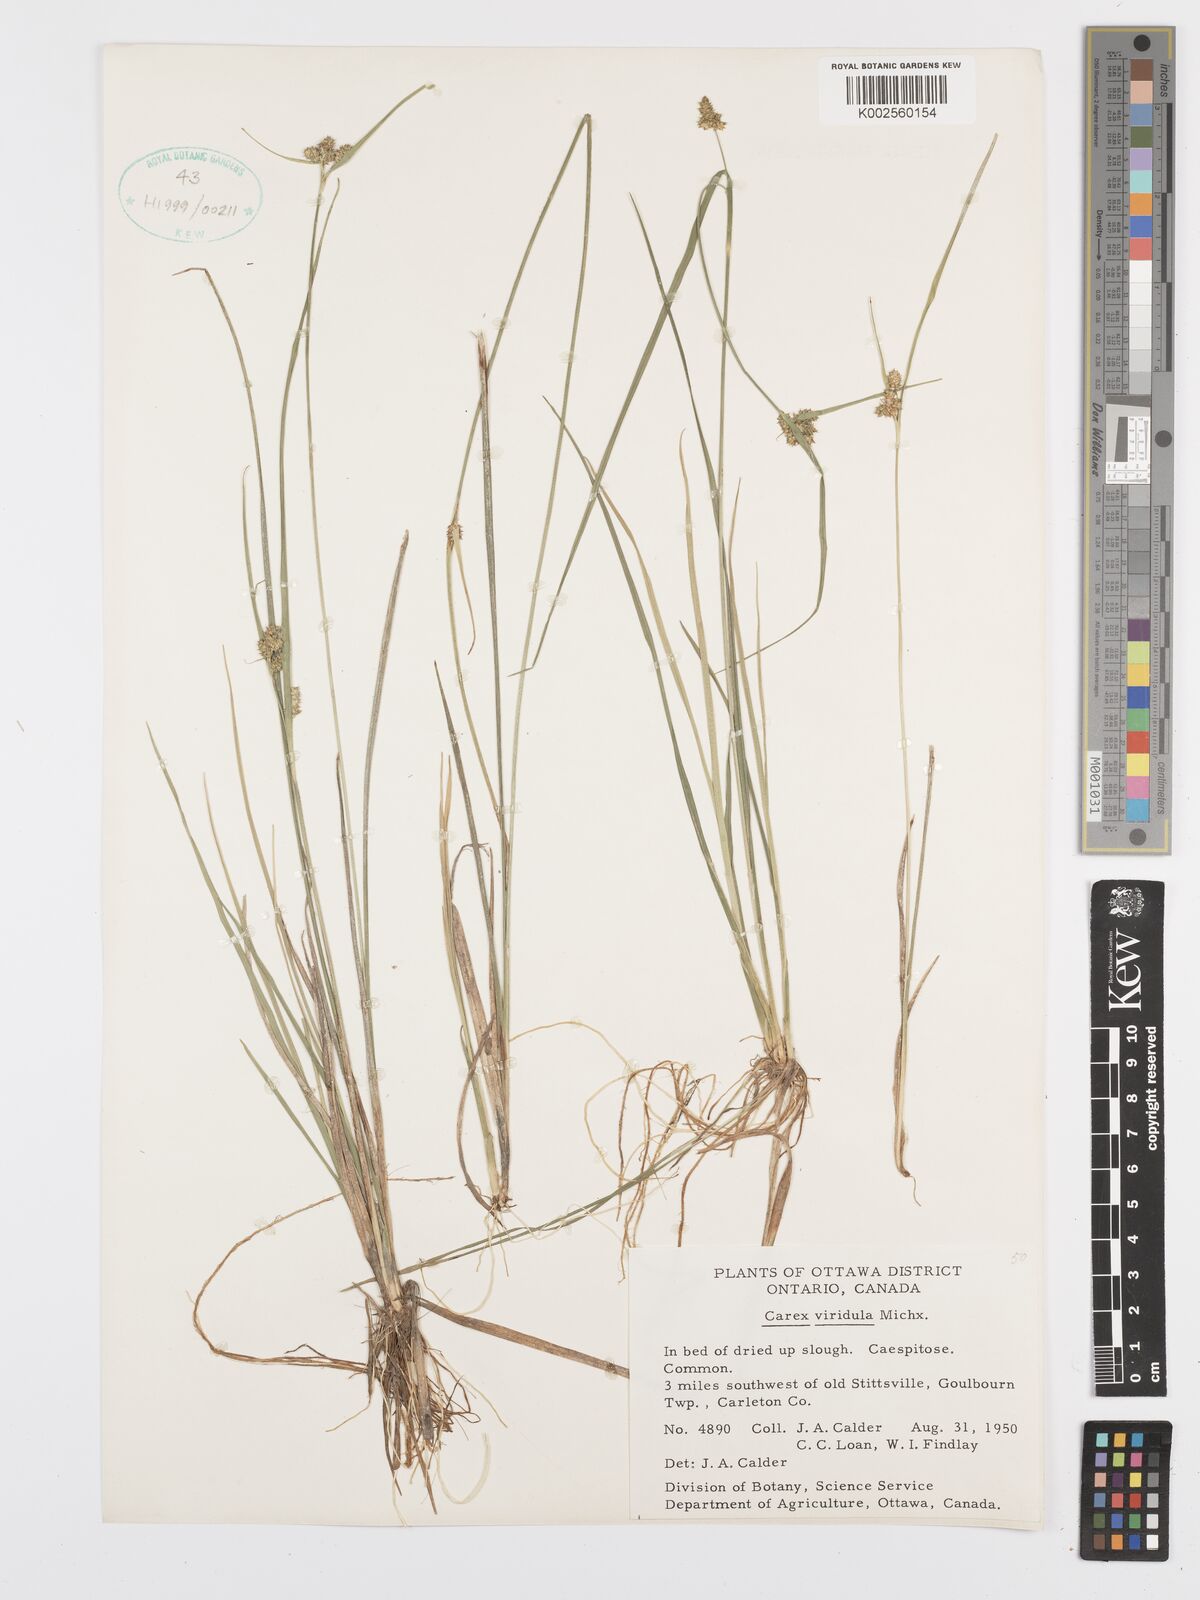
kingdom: Plantae
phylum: Tracheophyta
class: Liliopsida
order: Poales
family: Cyperaceae
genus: Carex
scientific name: Carex oederi
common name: Common & small-fruited yellow-sedge
